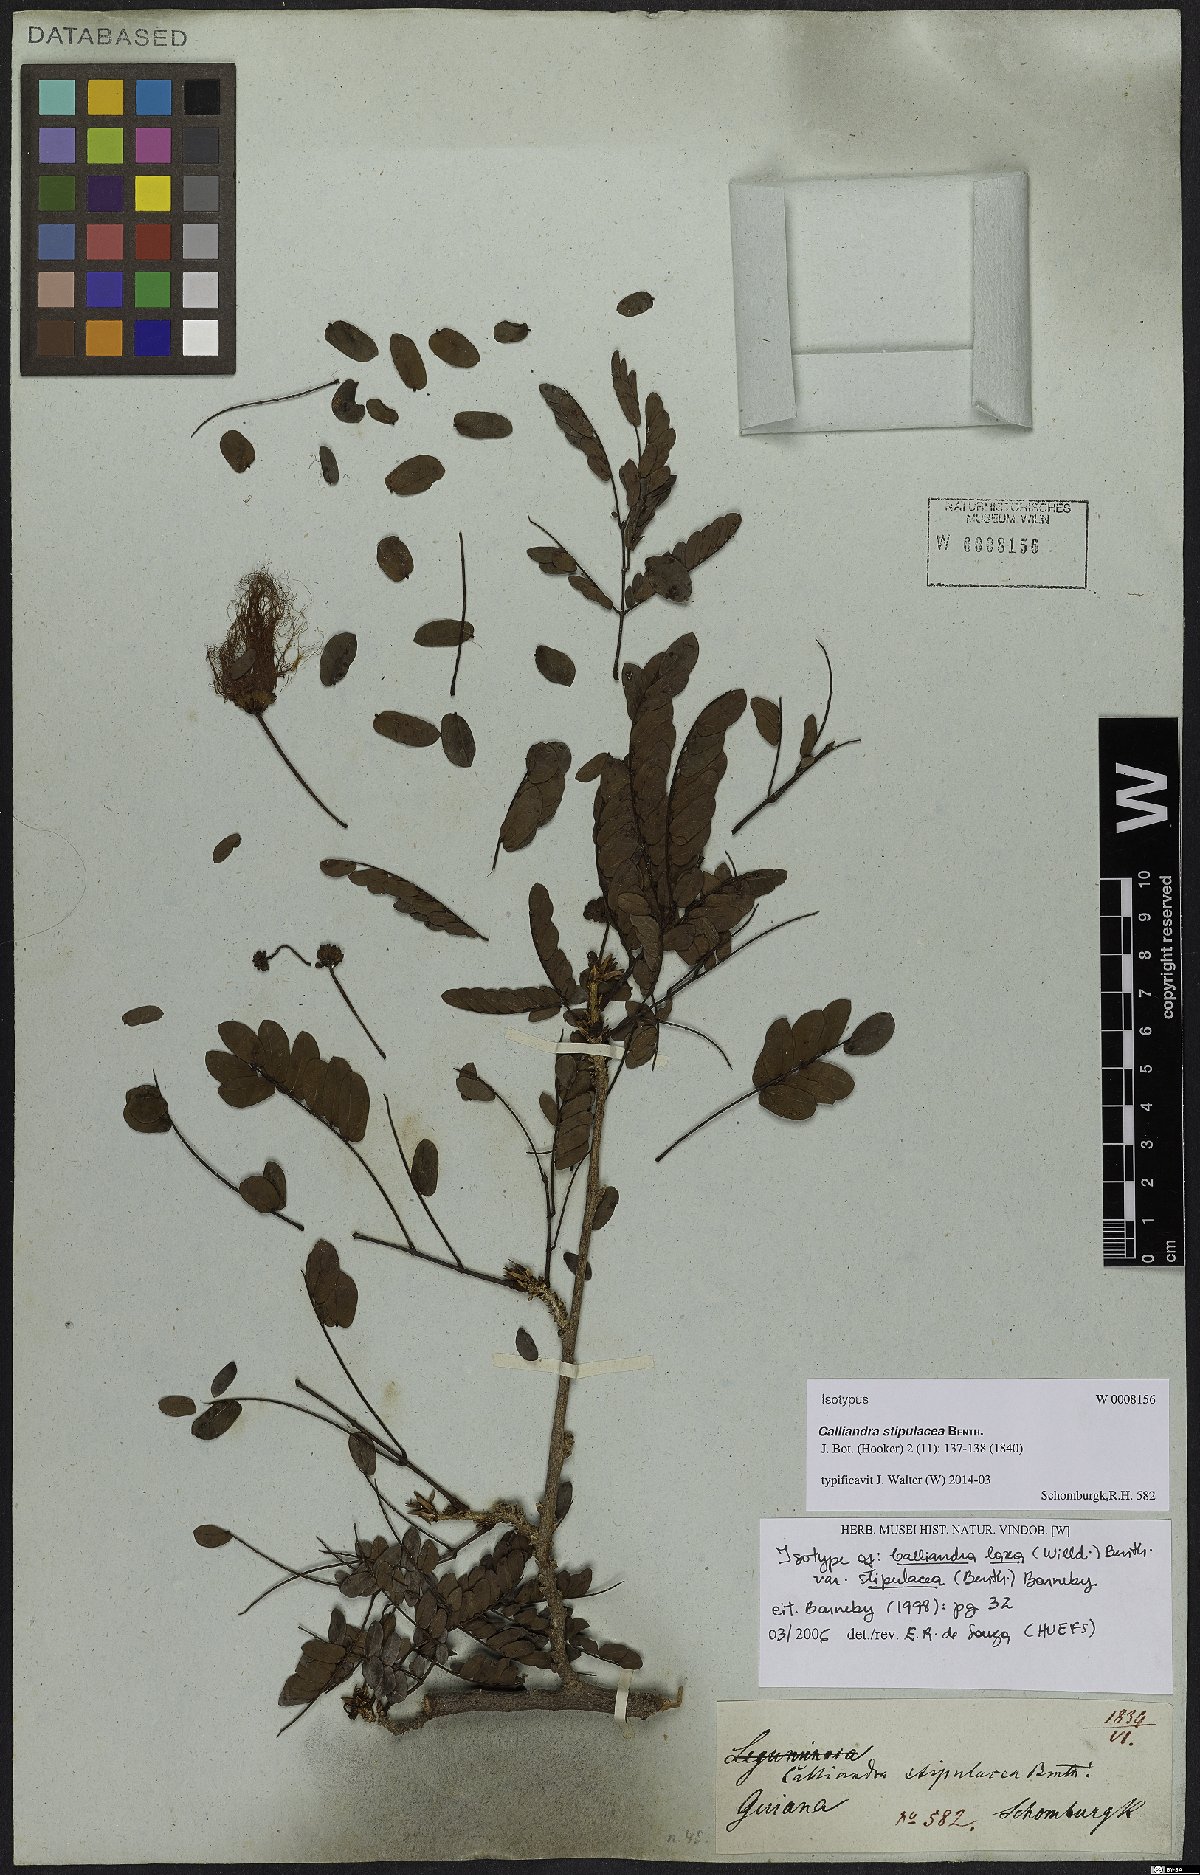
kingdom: Plantae
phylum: Tracheophyta
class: Magnoliopsida
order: Fabales
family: Fabaceae
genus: Calliandra
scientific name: Calliandra laxa
